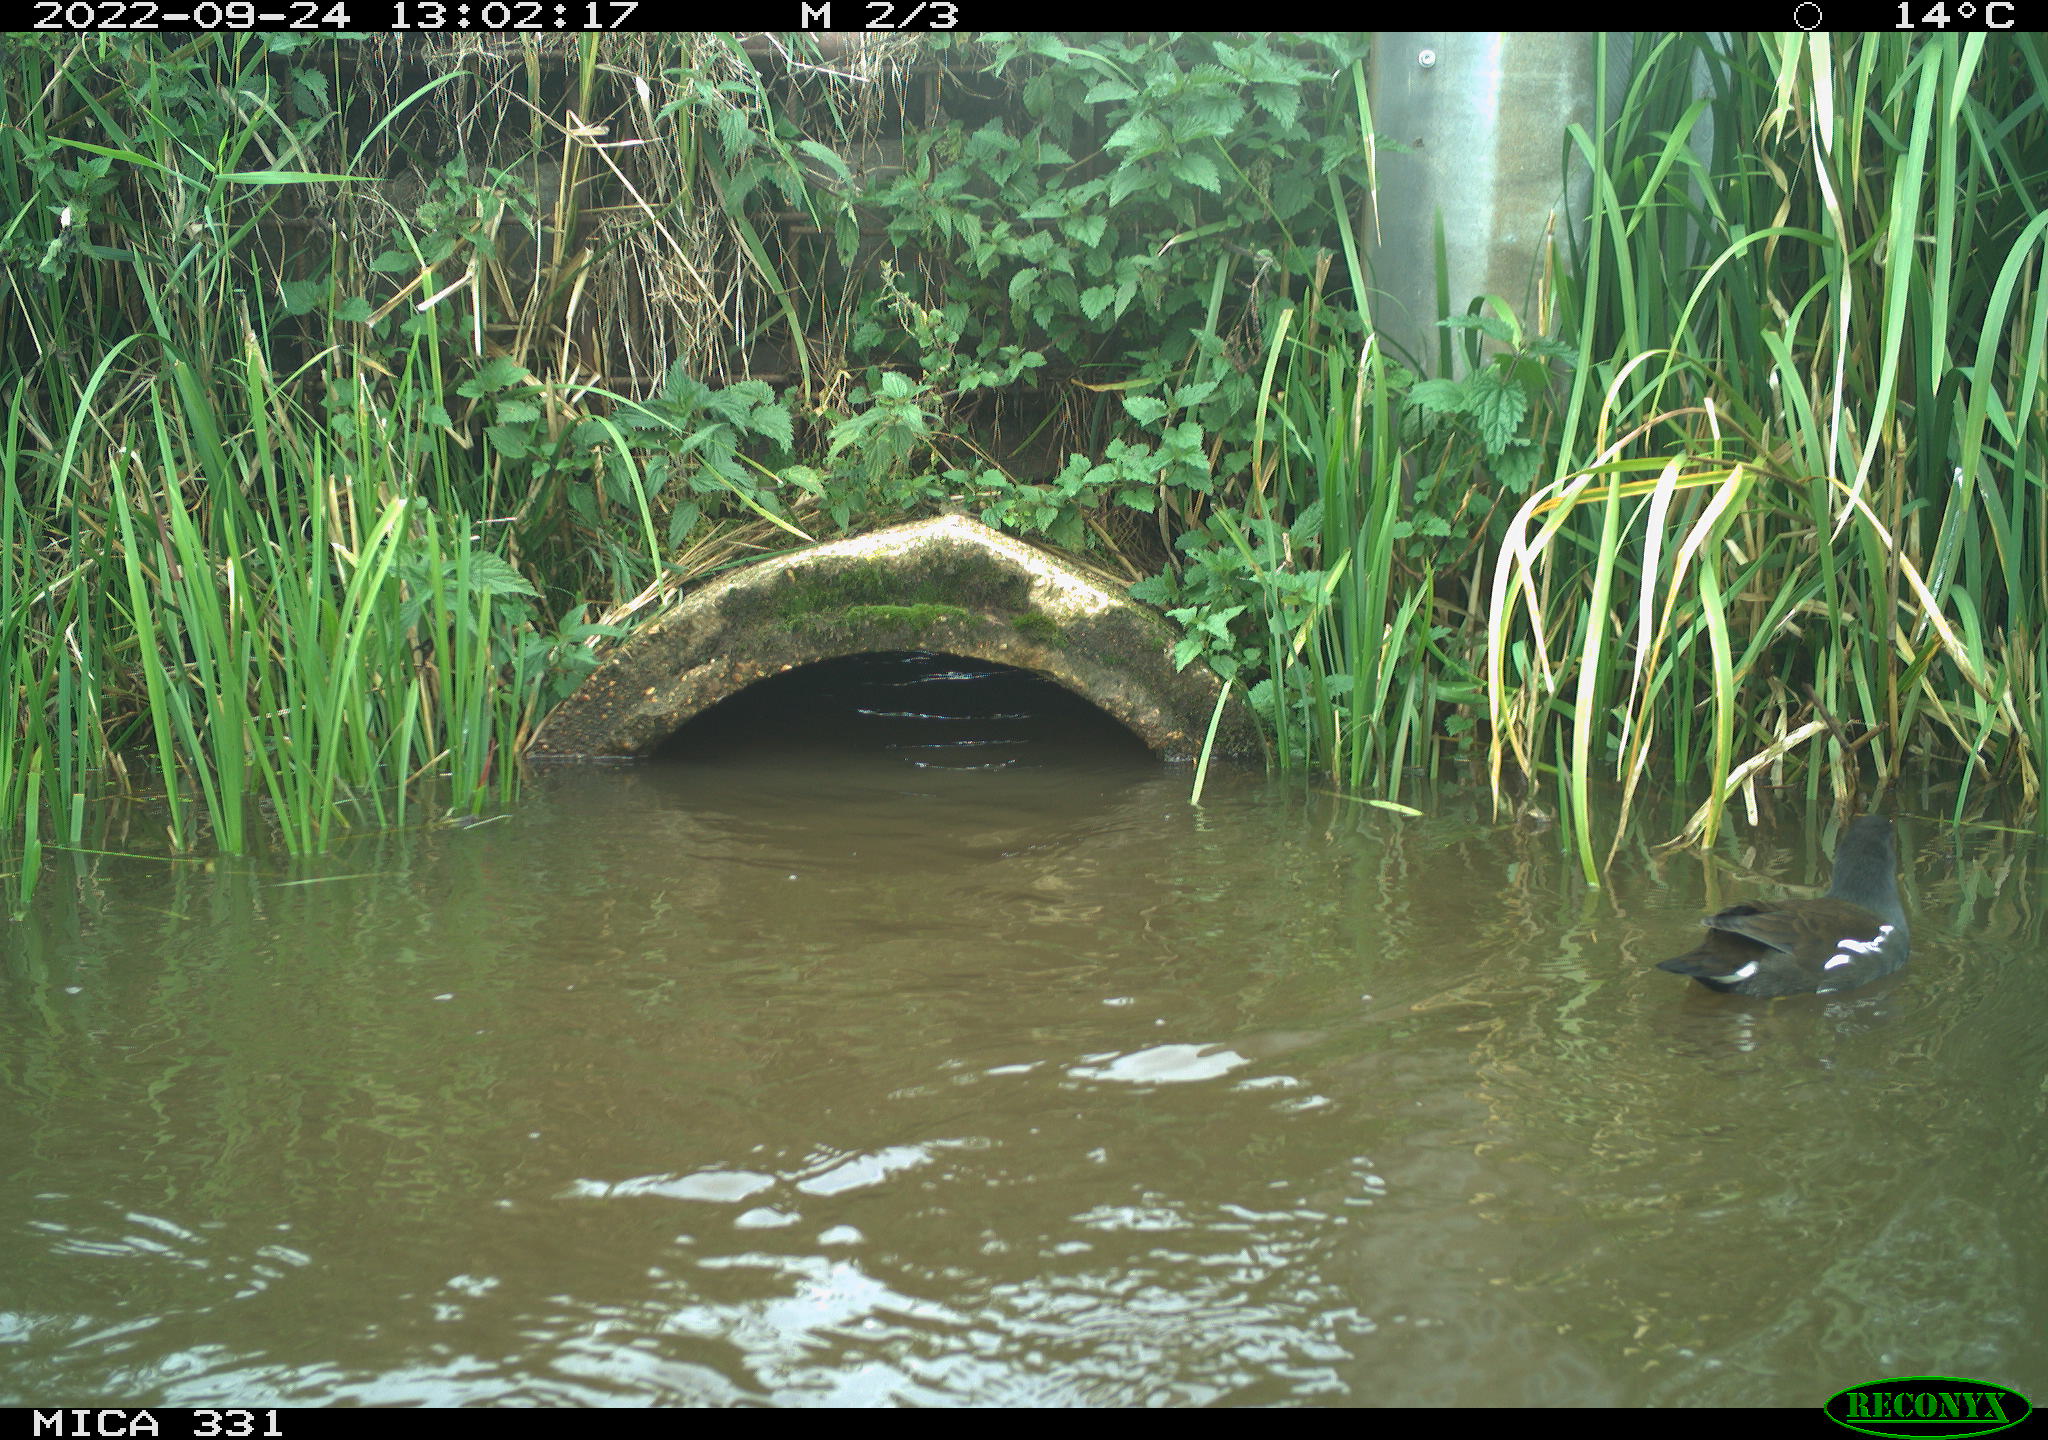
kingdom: Animalia
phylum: Chordata
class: Aves
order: Gruiformes
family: Rallidae
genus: Gallinula
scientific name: Gallinula chloropus
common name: Common moorhen
